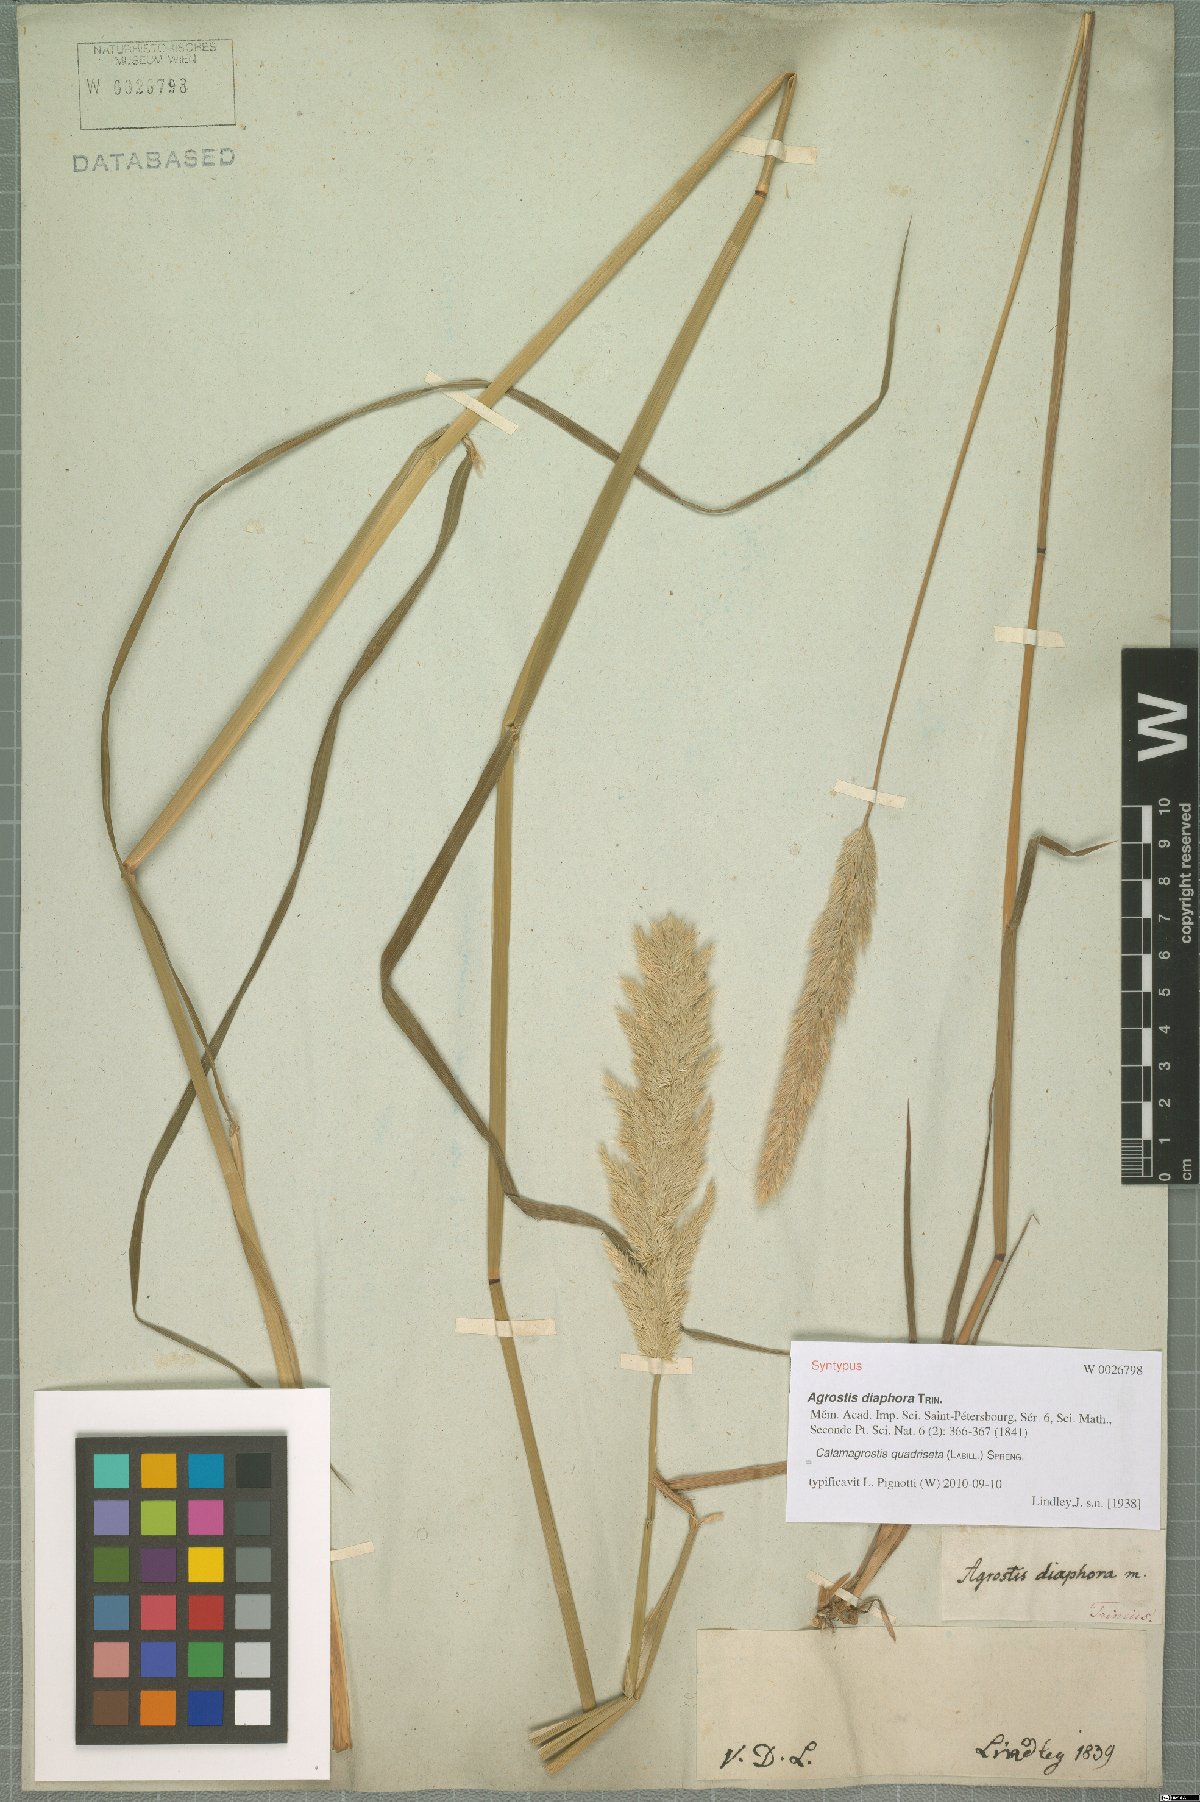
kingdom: Plantae
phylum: Tracheophyta
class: Liliopsida
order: Poales
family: Poaceae
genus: Calamagrostis
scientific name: Calamagrostis quadriseta
